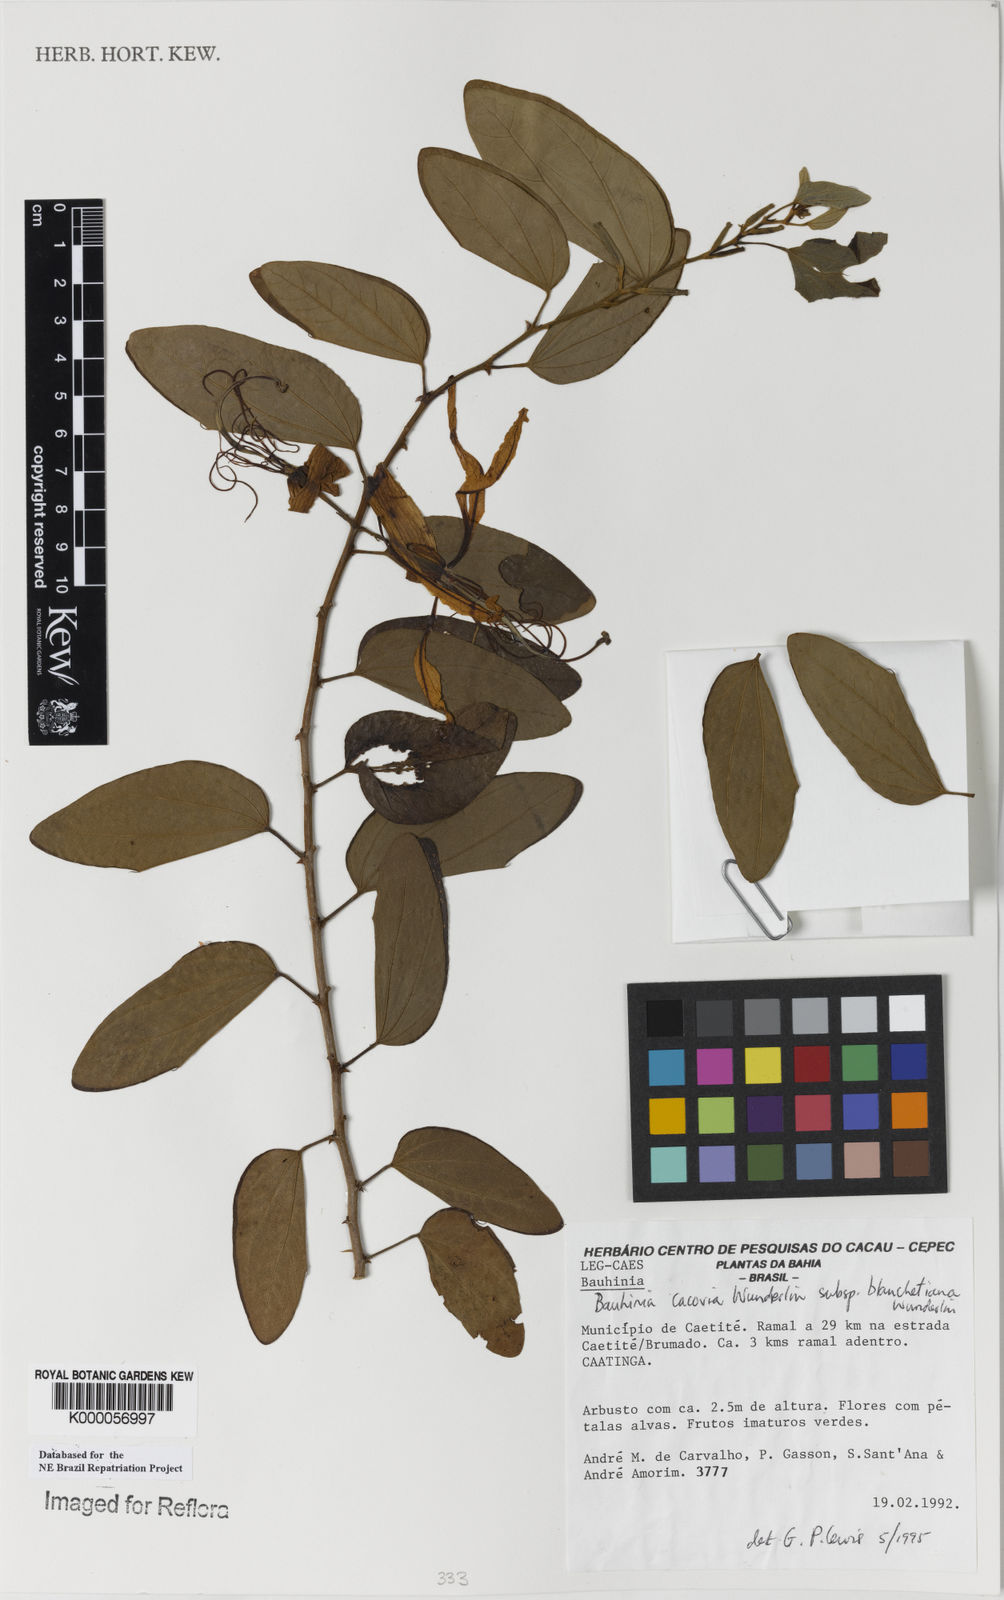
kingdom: Plantae
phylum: Tracheophyta
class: Magnoliopsida
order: Fabales
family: Fabaceae
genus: Bauhinia
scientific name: Bauhinia
